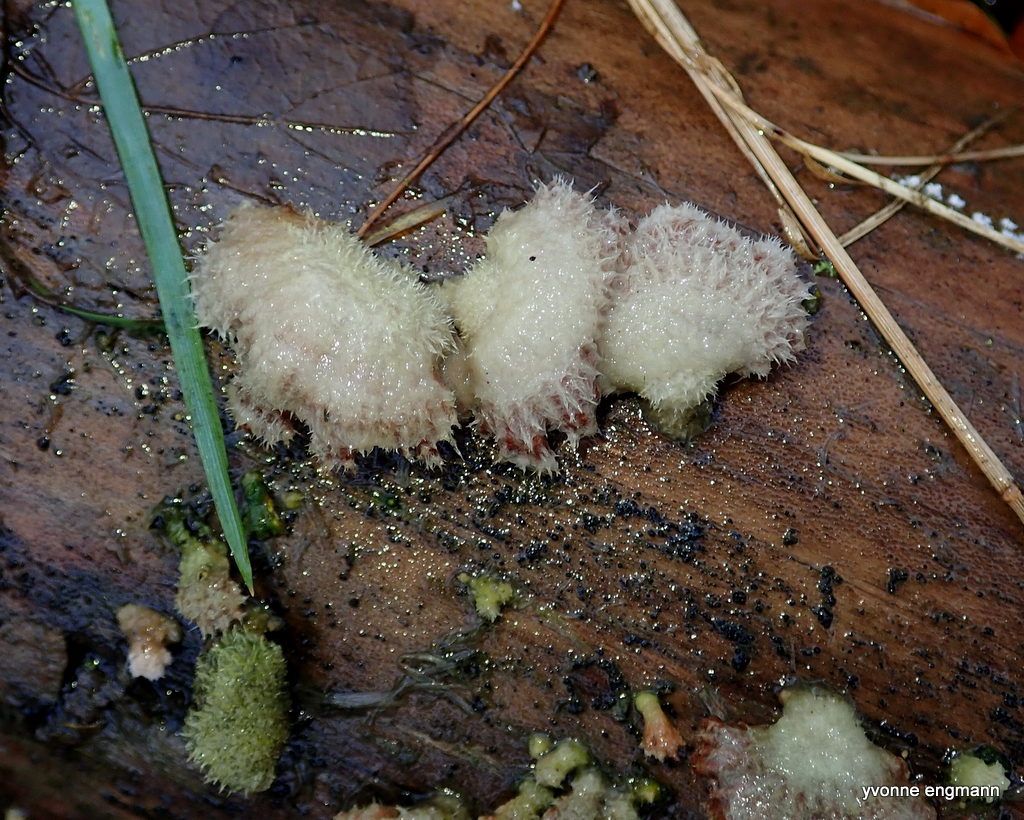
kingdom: Fungi
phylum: Basidiomycota
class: Agaricomycetes
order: Agaricales
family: Schizophyllaceae
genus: Schizophyllum
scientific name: Schizophyllum commune
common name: kløvblad
